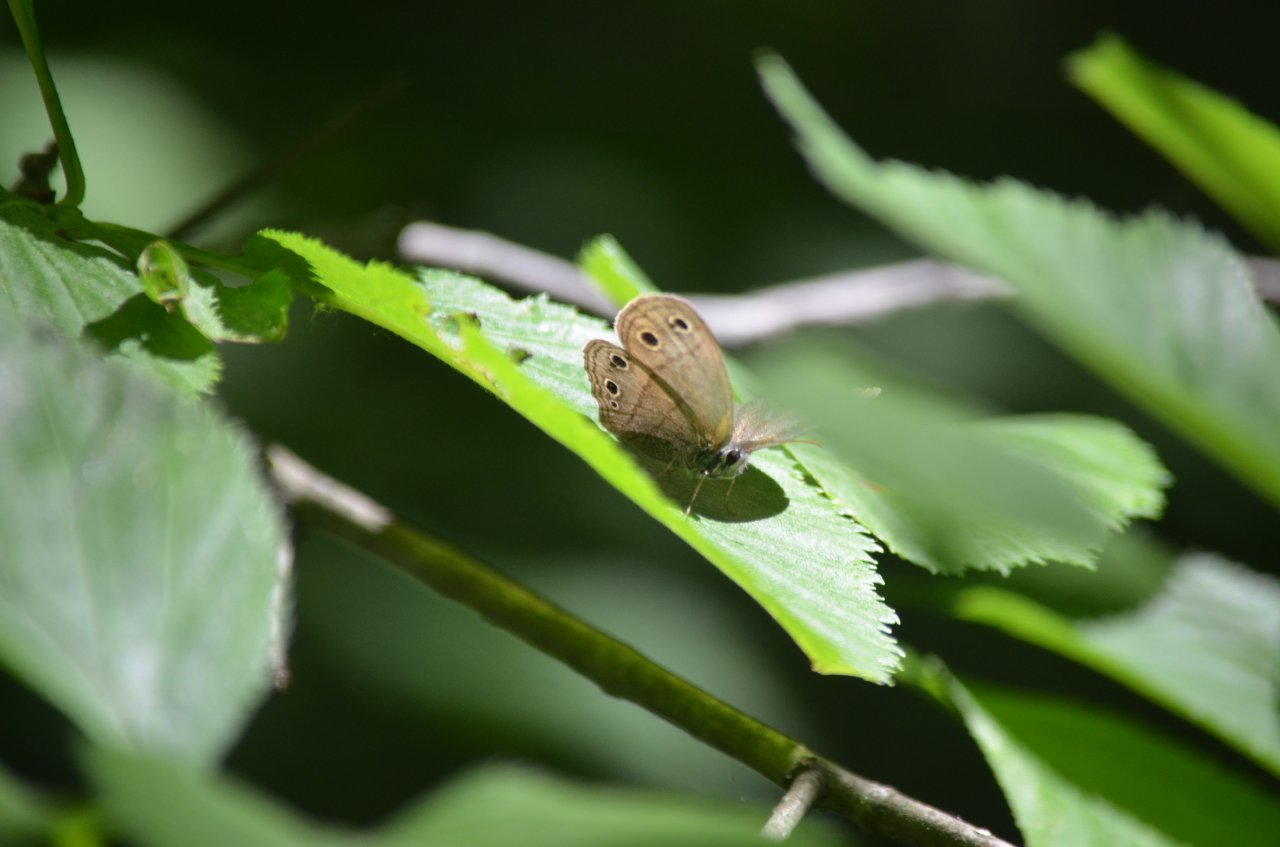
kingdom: Animalia
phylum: Arthropoda
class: Insecta
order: Lepidoptera
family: Nymphalidae
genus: Euptychia
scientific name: Euptychia cymela
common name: Little Wood Satyr
